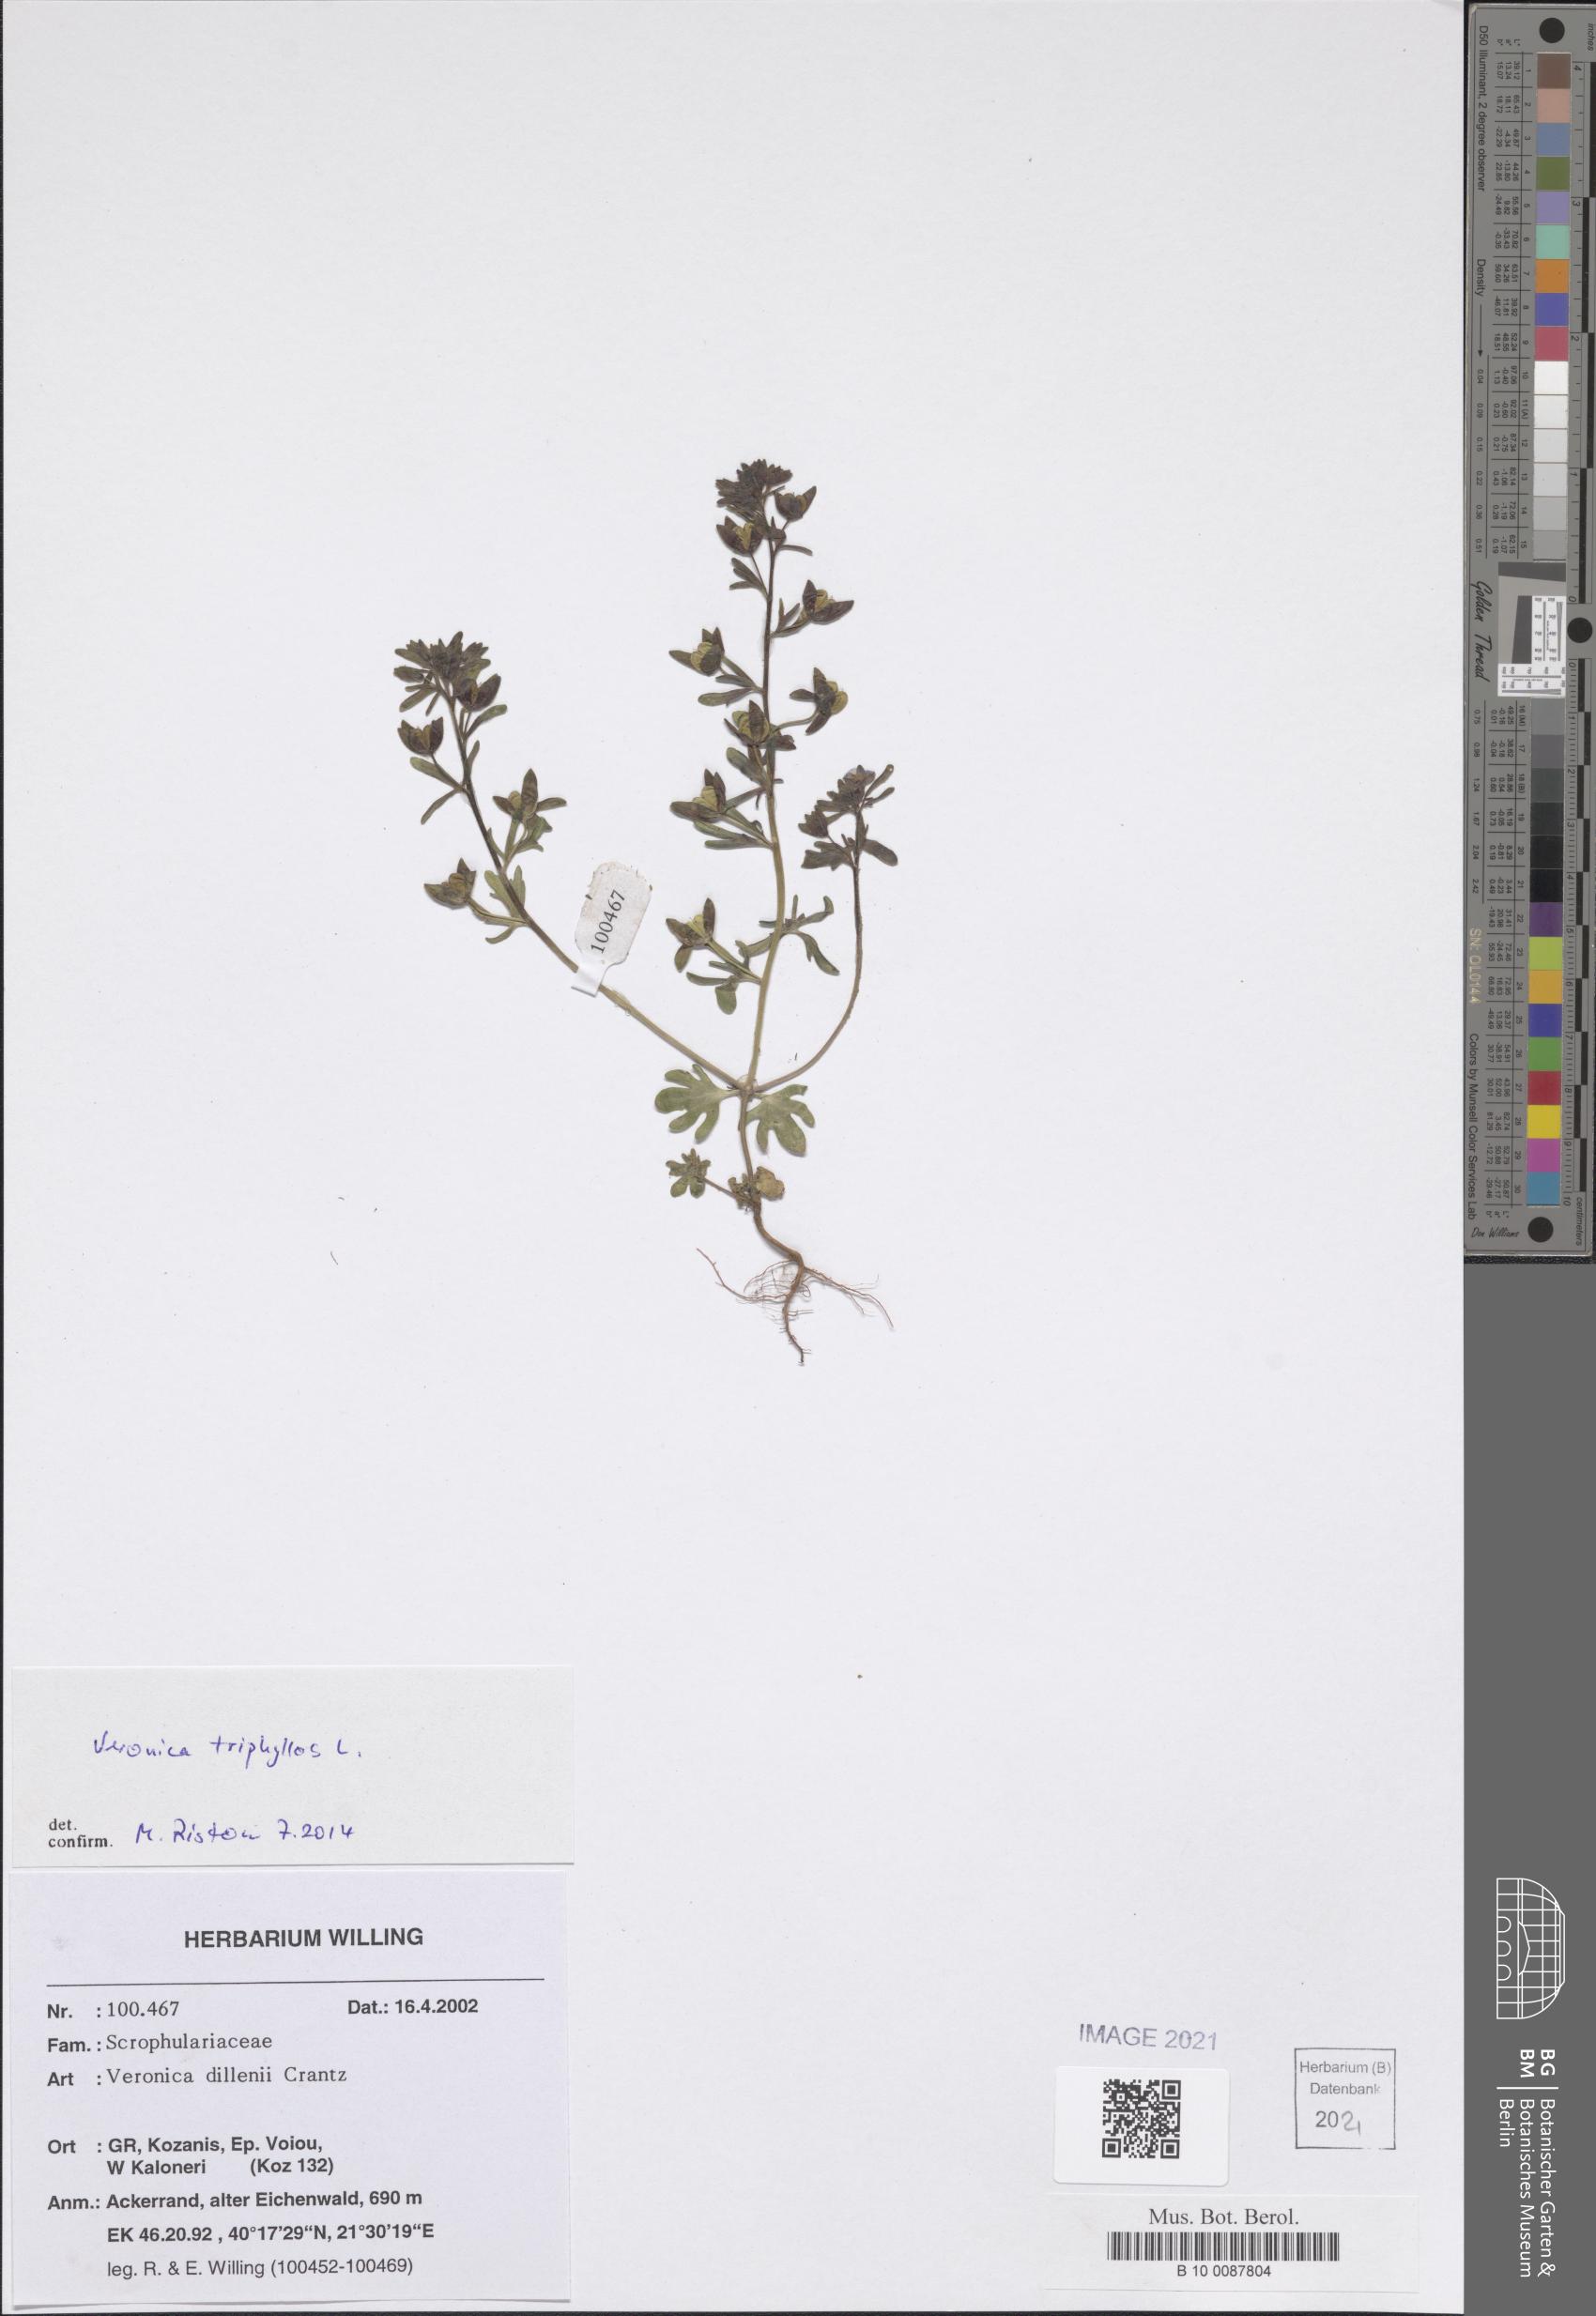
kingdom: Plantae
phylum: Tracheophyta
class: Magnoliopsida
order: Lamiales
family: Plantaginaceae
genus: Veronica
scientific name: Veronica triphyllos
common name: Fingered speedwell
